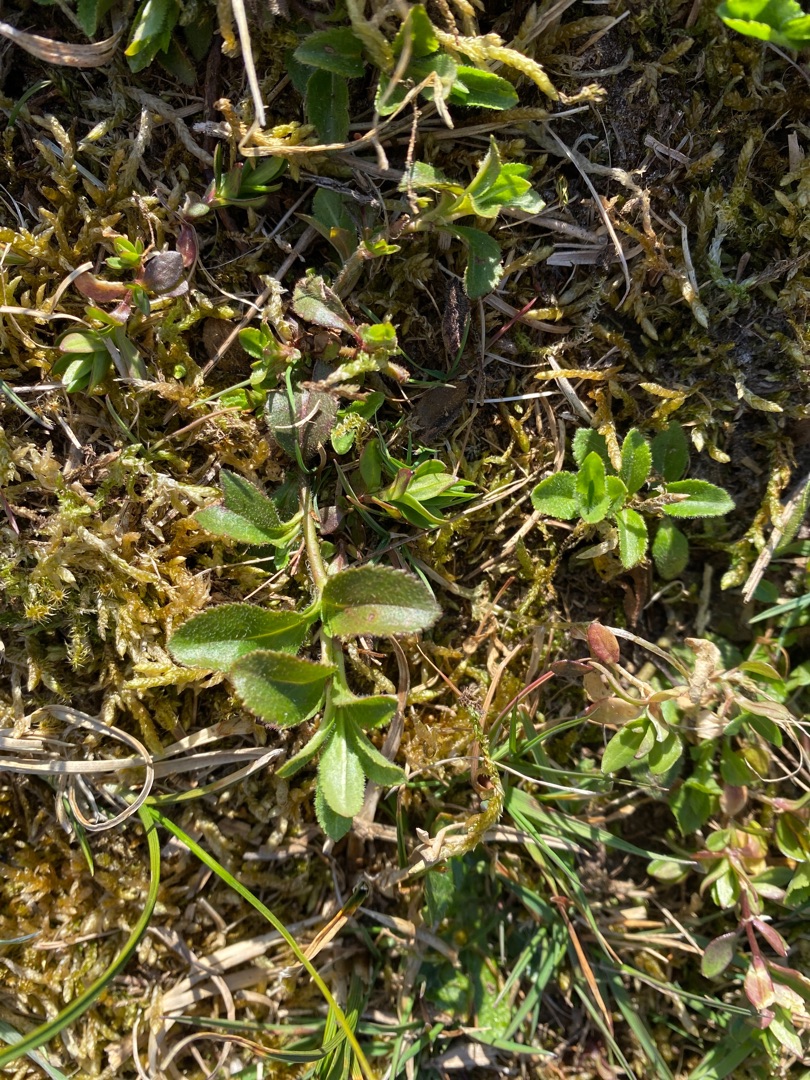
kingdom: Plantae
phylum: Tracheophyta
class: Magnoliopsida
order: Lamiales
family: Plantaginaceae
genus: Veronica
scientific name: Veronica officinalis
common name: Læge-ærenpris
